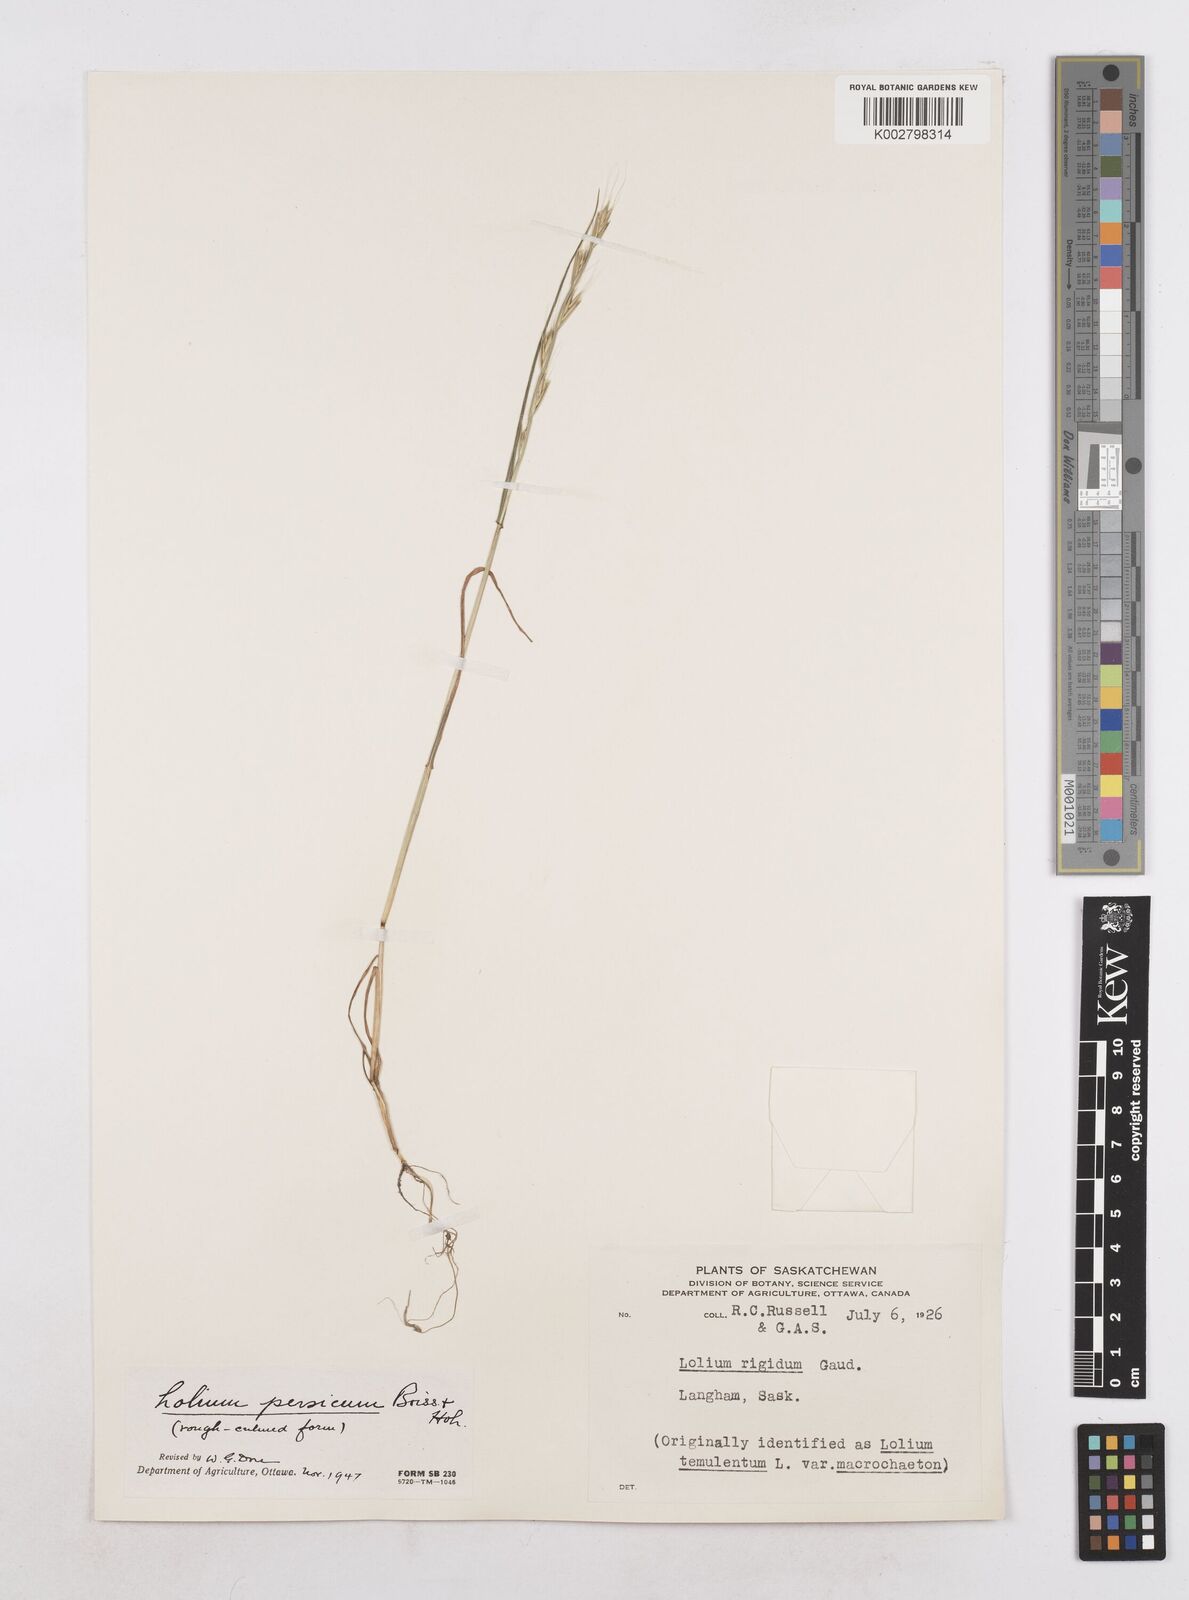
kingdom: Plantae
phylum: Tracheophyta
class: Liliopsida
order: Poales
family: Poaceae
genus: Lolium
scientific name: Lolium persicum
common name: Persian ryegrass
